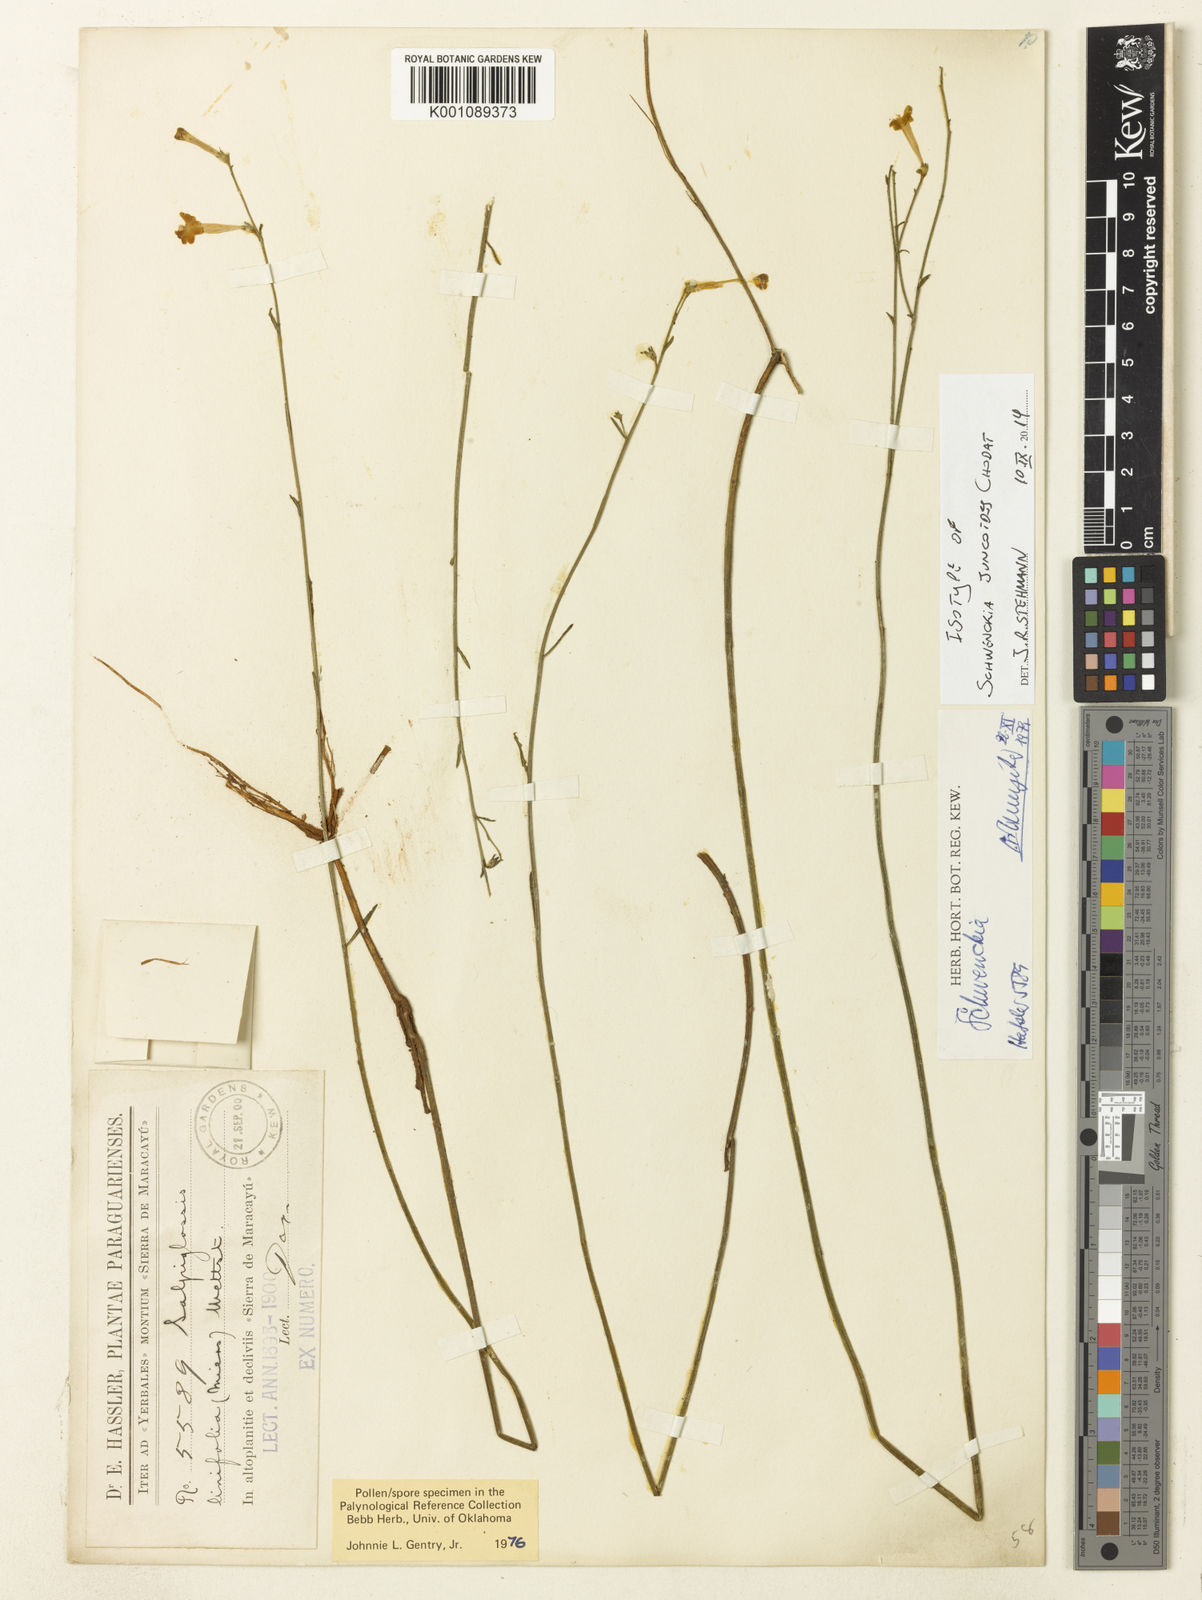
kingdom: Plantae
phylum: Tracheophyta
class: Magnoliopsida
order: Solanales
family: Solanaceae
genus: Schwenckia
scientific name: Schwenckia juncoides
